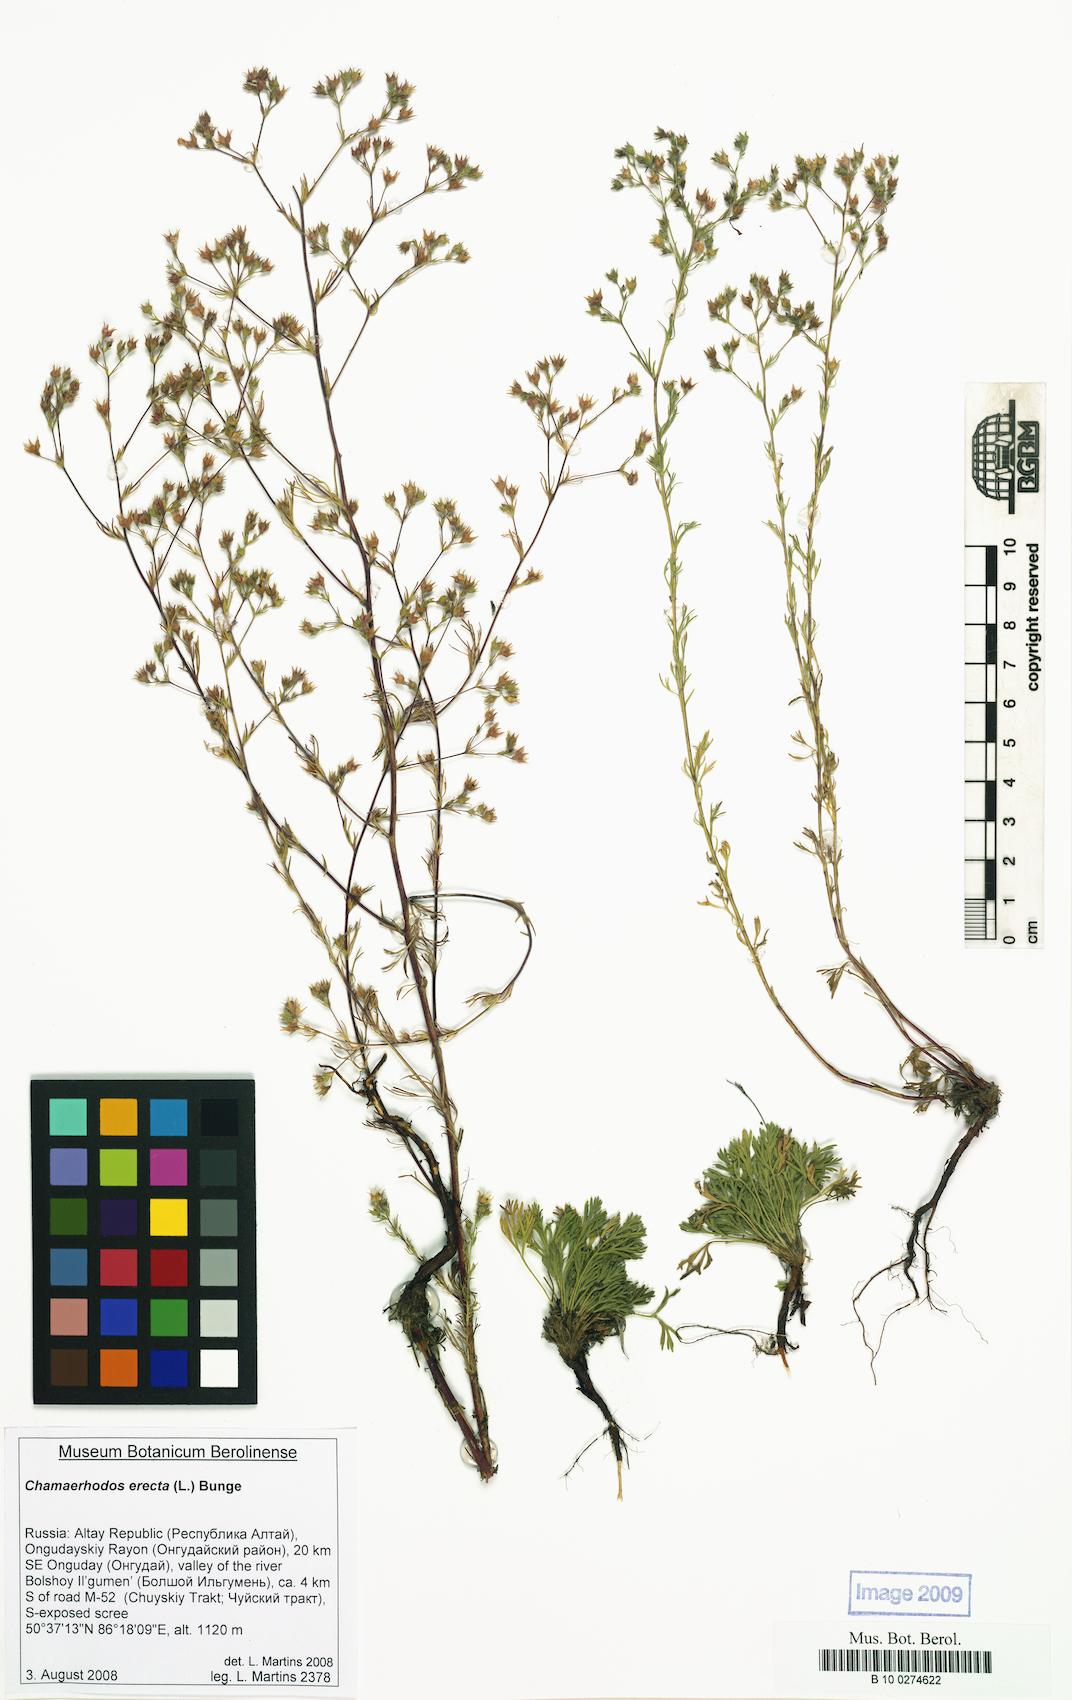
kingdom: Plantae
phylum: Tracheophyta
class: Magnoliopsida
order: Rosales
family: Rosaceae
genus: Chamaerhodos
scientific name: Chamaerhodos erecta
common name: American chamaerhodos
